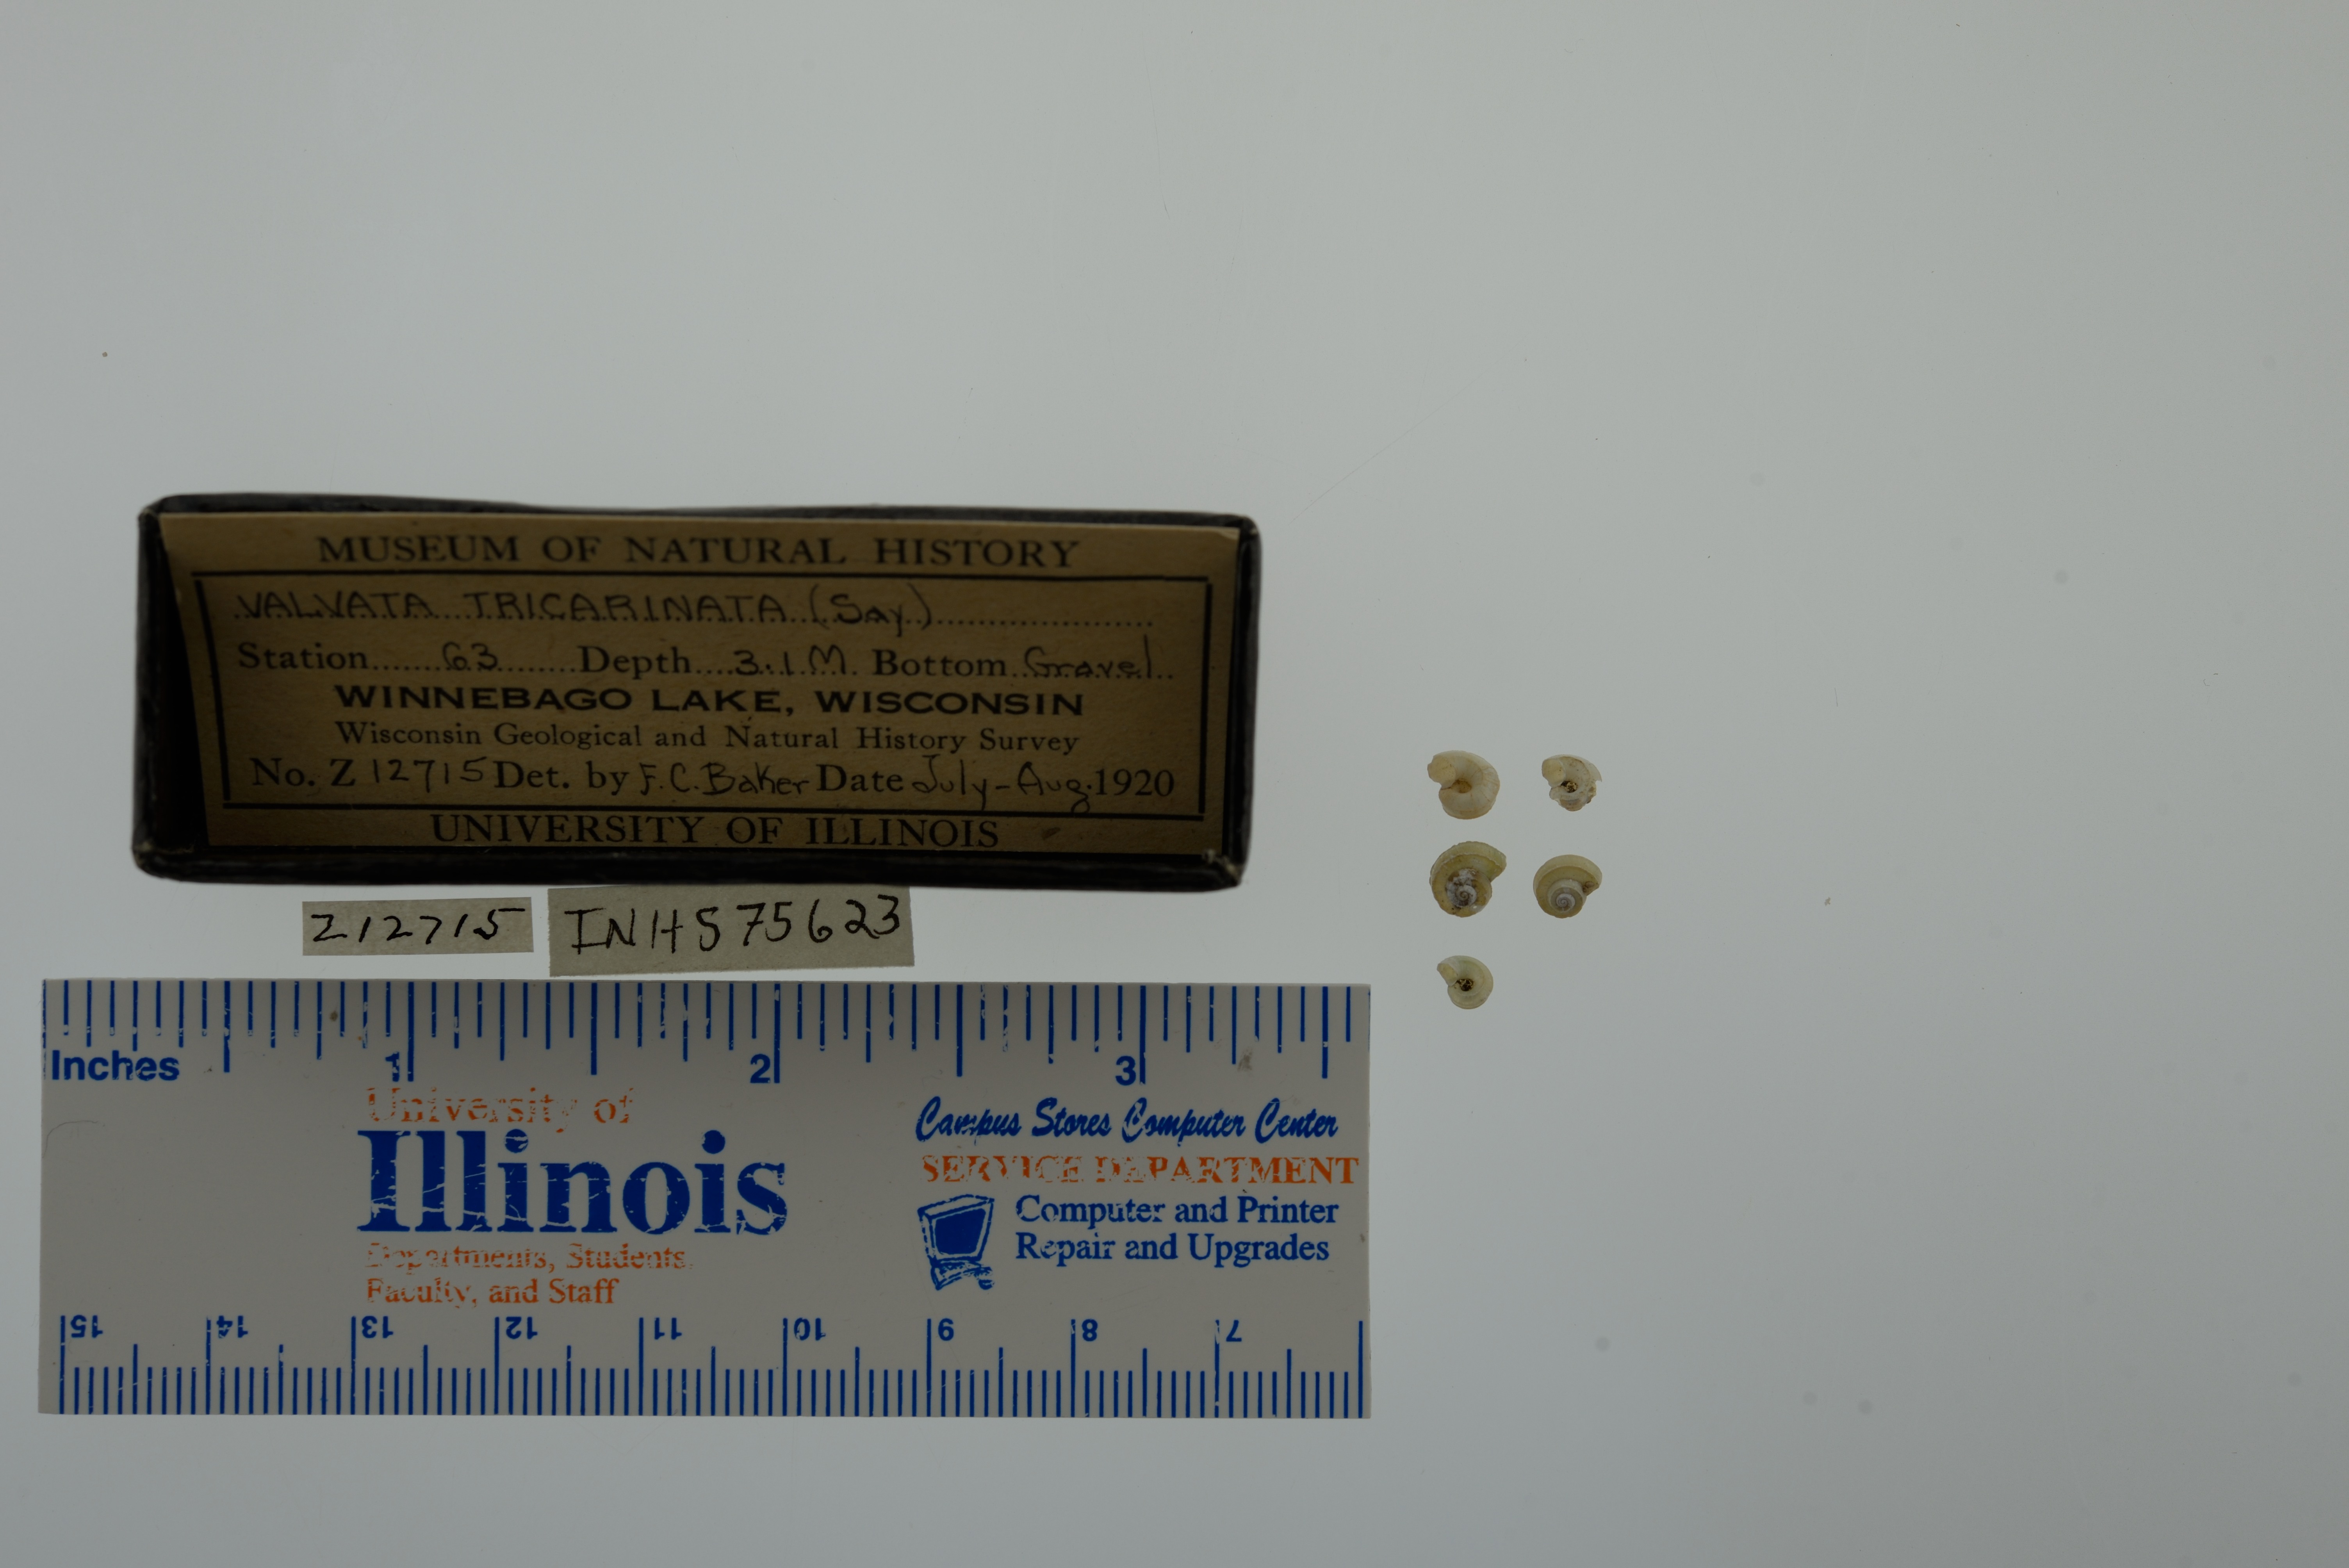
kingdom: Animalia
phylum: Mollusca
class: Gastropoda
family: Valvatidae
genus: Valvata
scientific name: Valvata tricarinata
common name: Three-ridge valvata
